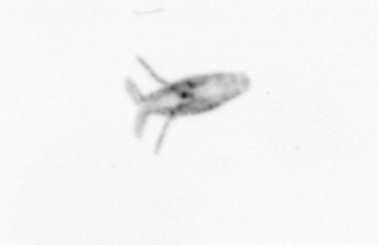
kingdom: Animalia
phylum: Arthropoda
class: Copepoda
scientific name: Copepoda
